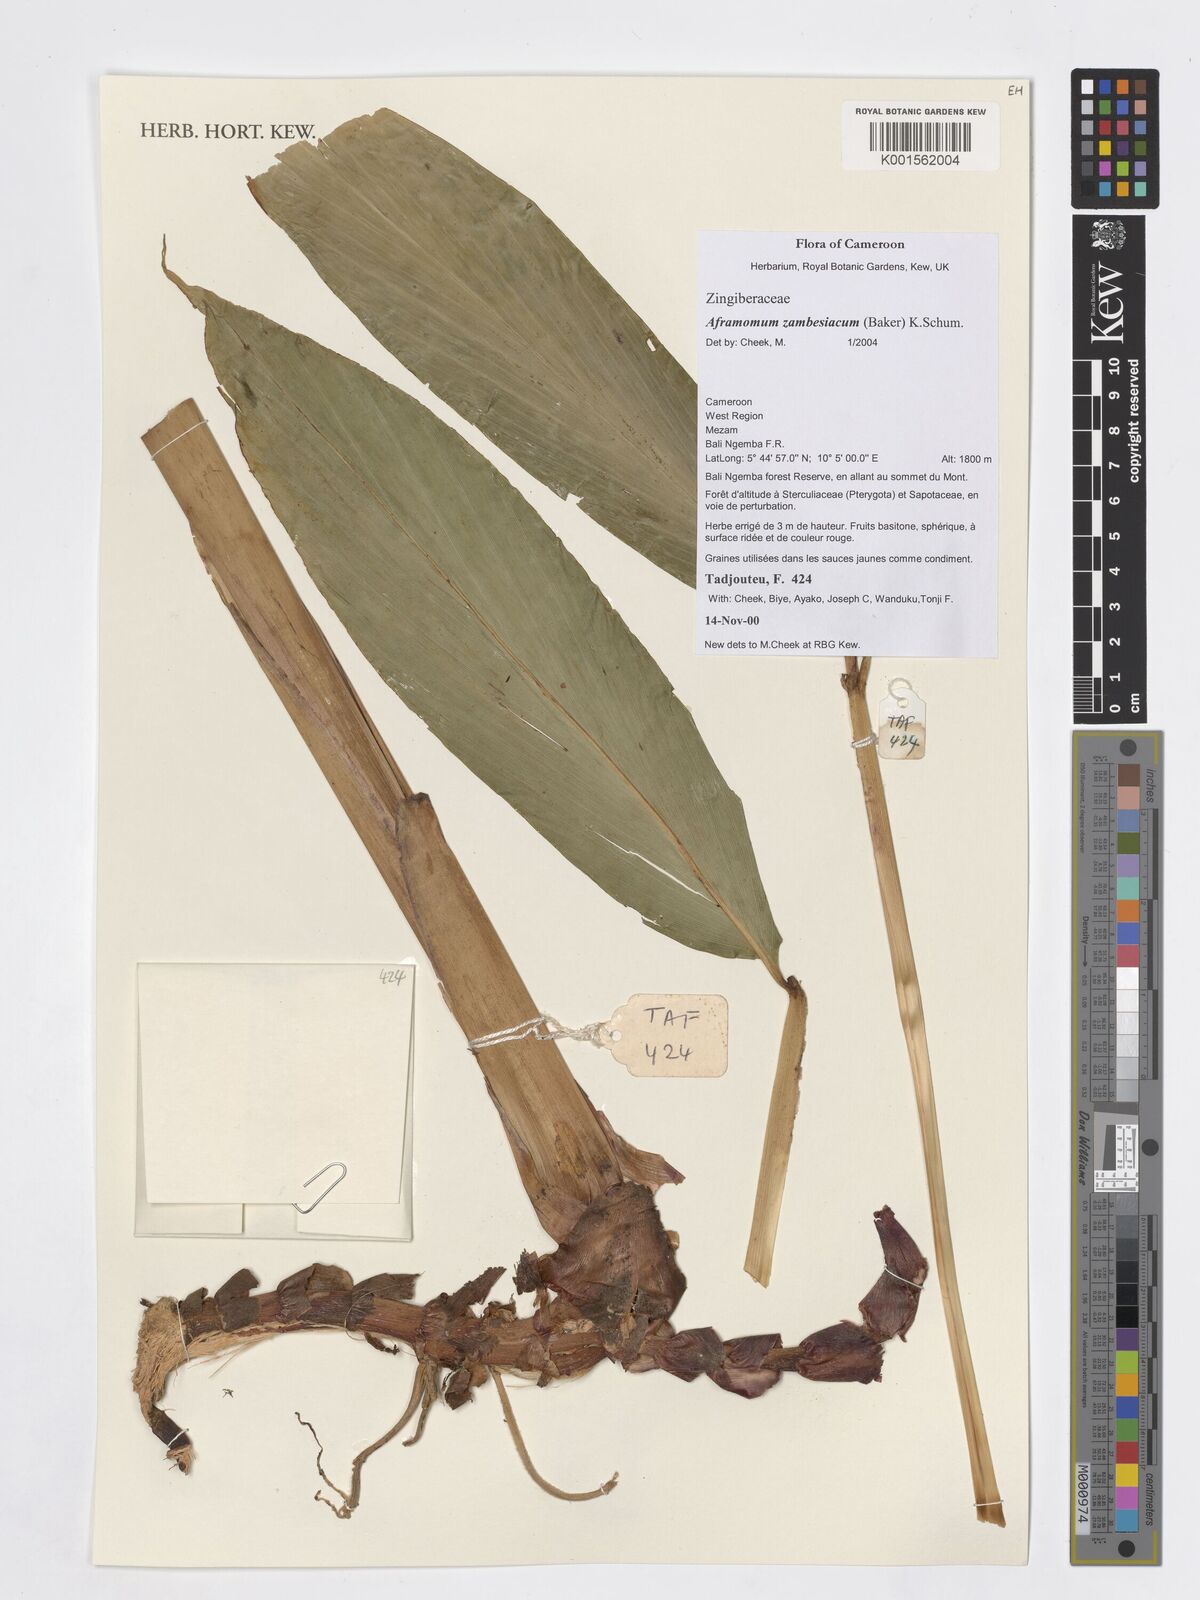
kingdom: Plantae
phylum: Tracheophyta
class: Liliopsida
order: Zingiberales
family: Zingiberaceae
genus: Aframomum
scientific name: Aframomum zambesiacum
